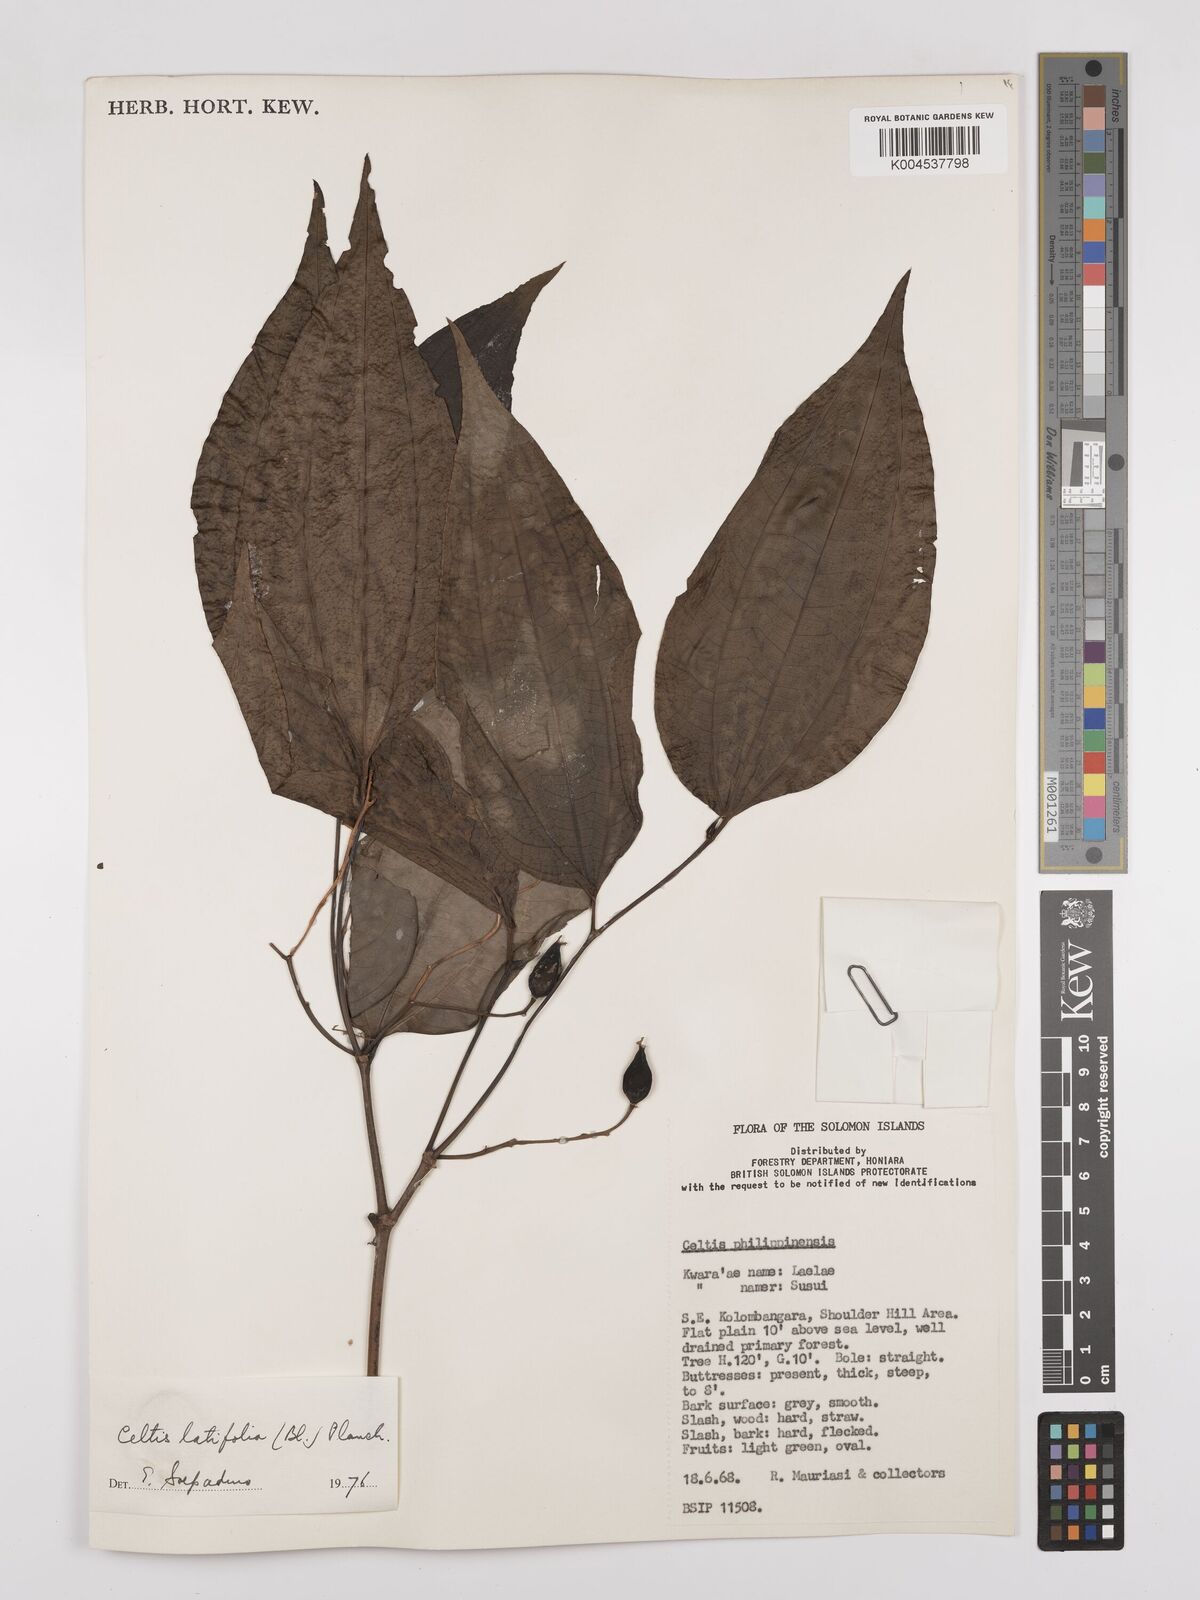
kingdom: Plantae
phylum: Tracheophyta
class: Magnoliopsida
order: Rosales
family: Cannabaceae
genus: Celtis
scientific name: Celtis latifolia
